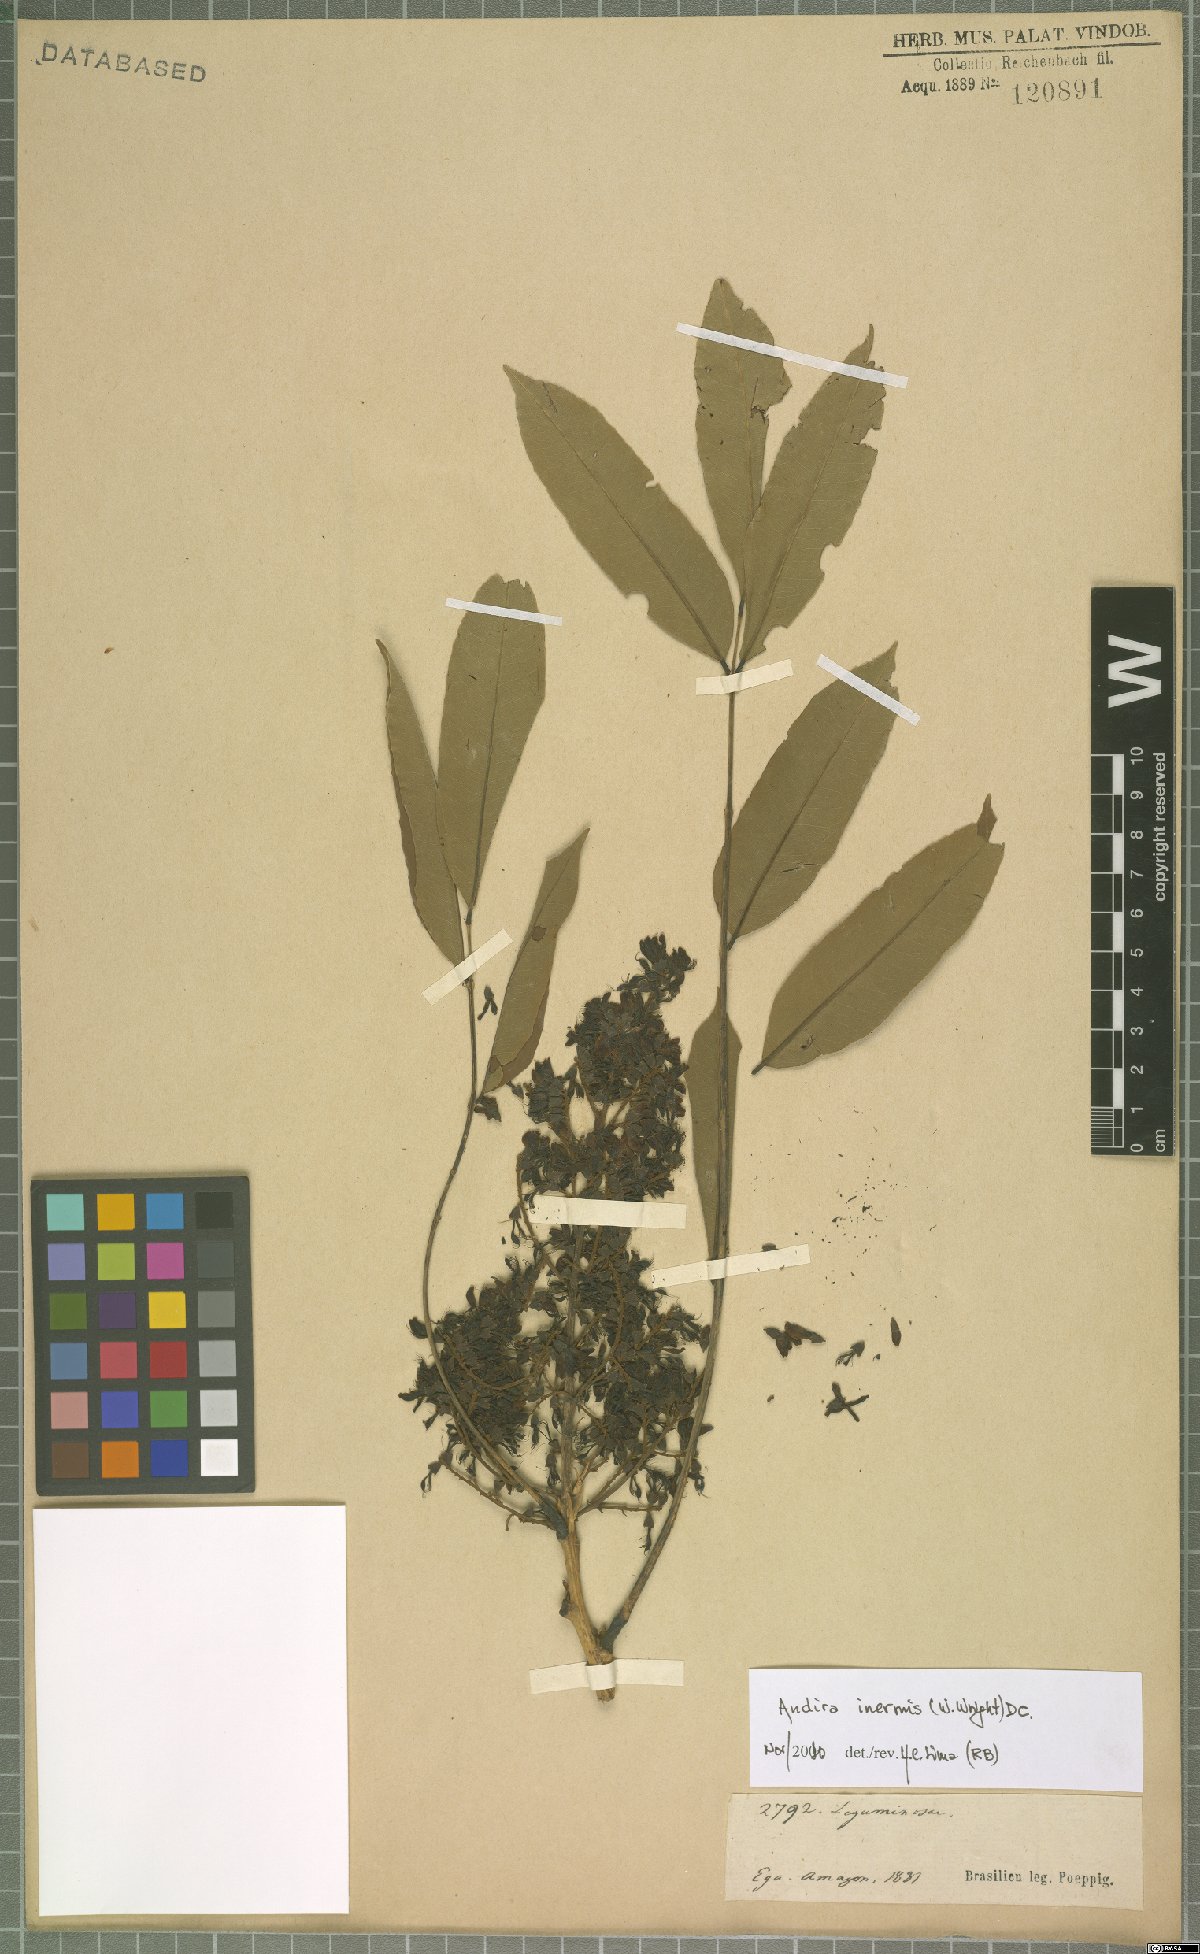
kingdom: Plantae
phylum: Tracheophyta
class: Magnoliopsida
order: Fabales
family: Fabaceae
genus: Andira
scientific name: Andira inermis
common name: Angelin
